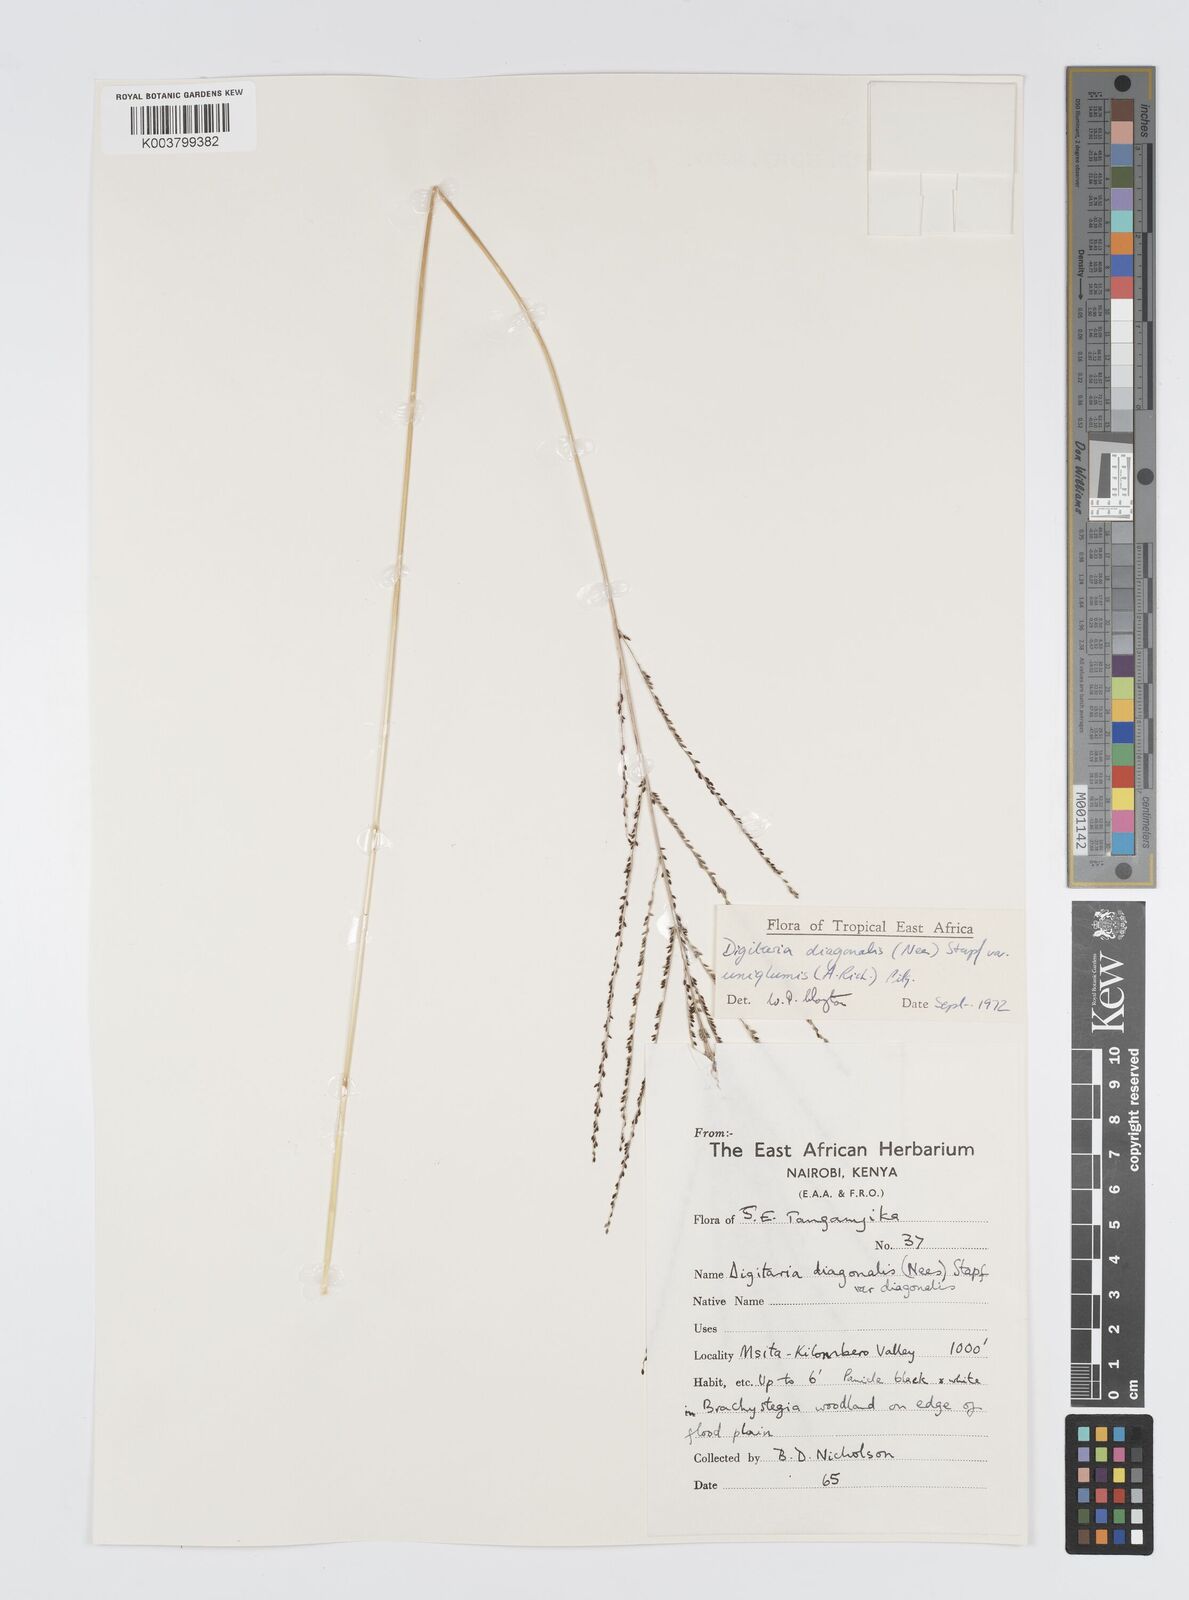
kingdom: Plantae
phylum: Tracheophyta
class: Liliopsida
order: Poales
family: Poaceae
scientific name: Poaceae
